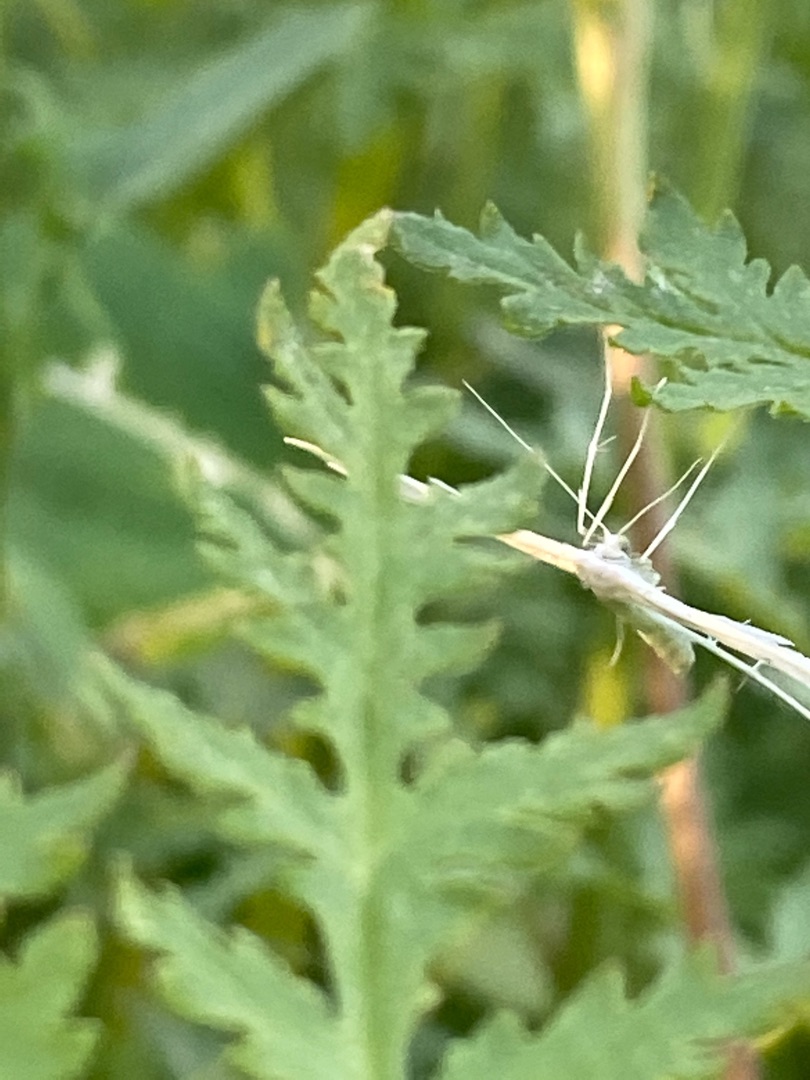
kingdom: Animalia
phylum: Arthropoda
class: Insecta
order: Lepidoptera
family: Pterophoridae
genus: Pterophorus
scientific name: Pterophorus pentadactyla
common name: Hvidt fjermøl
